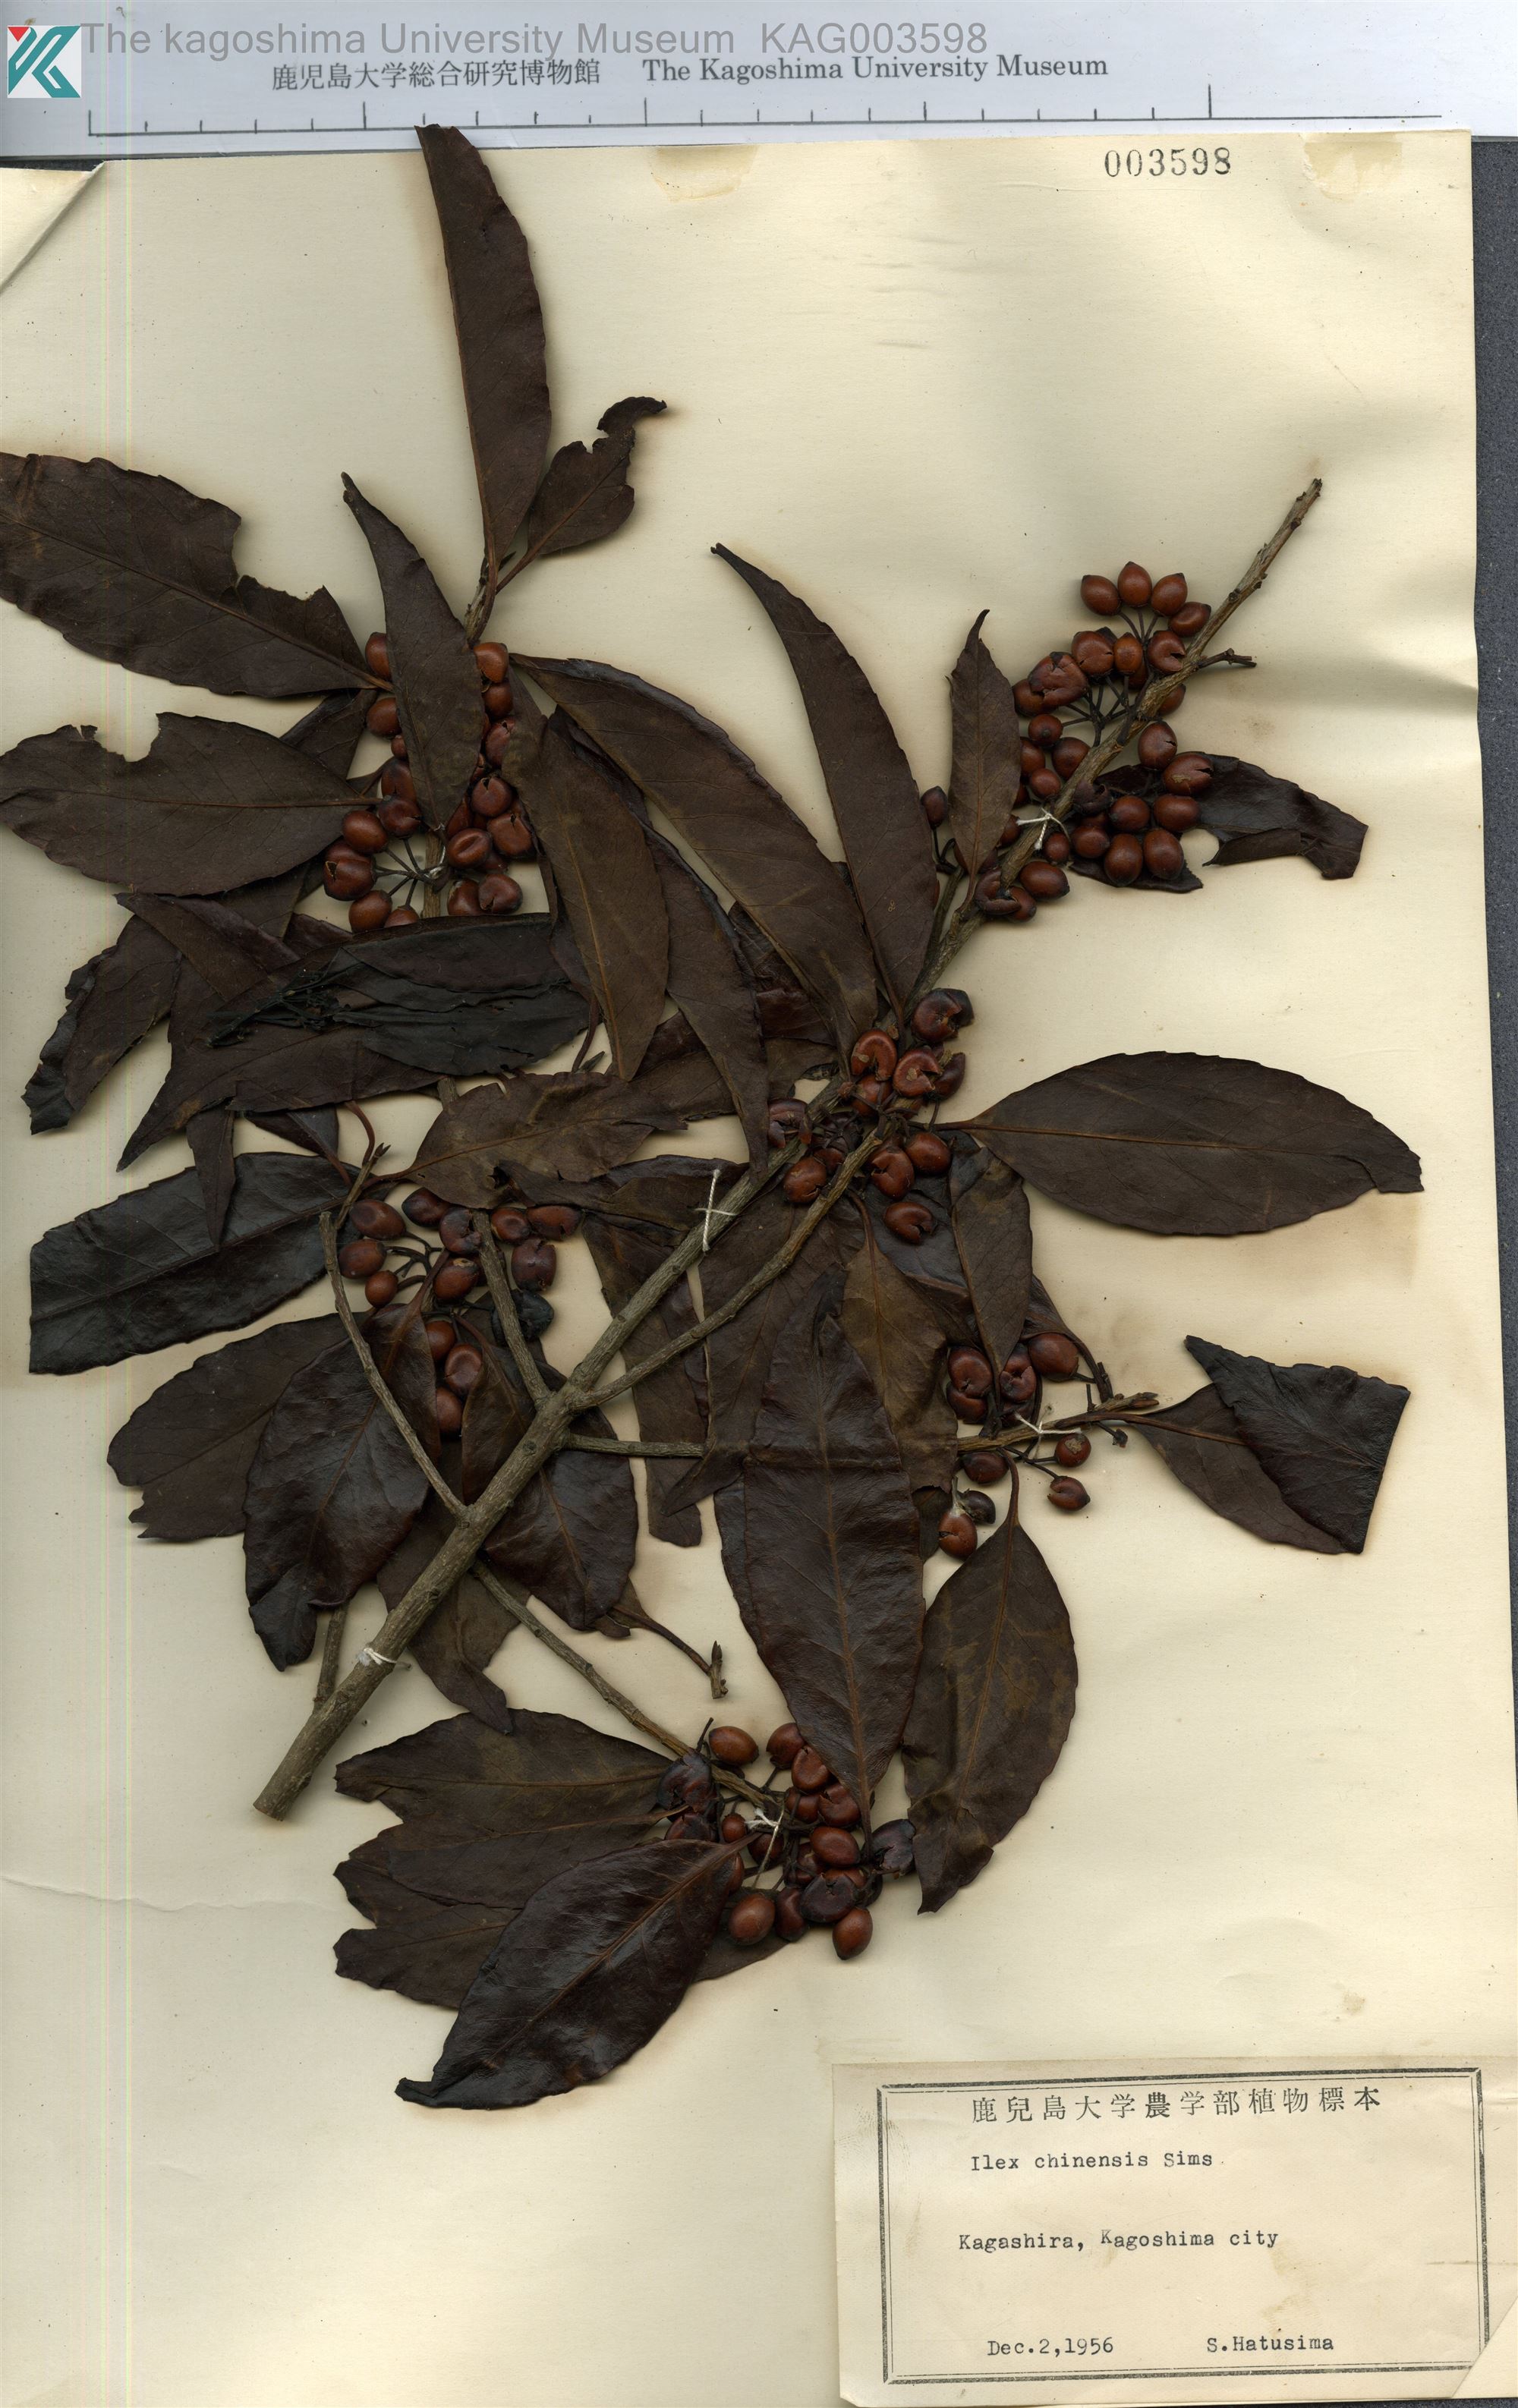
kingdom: Plantae
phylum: Tracheophyta
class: Magnoliopsida
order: Aquifoliales
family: Aquifoliaceae
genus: Ilex
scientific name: Ilex chinensis
